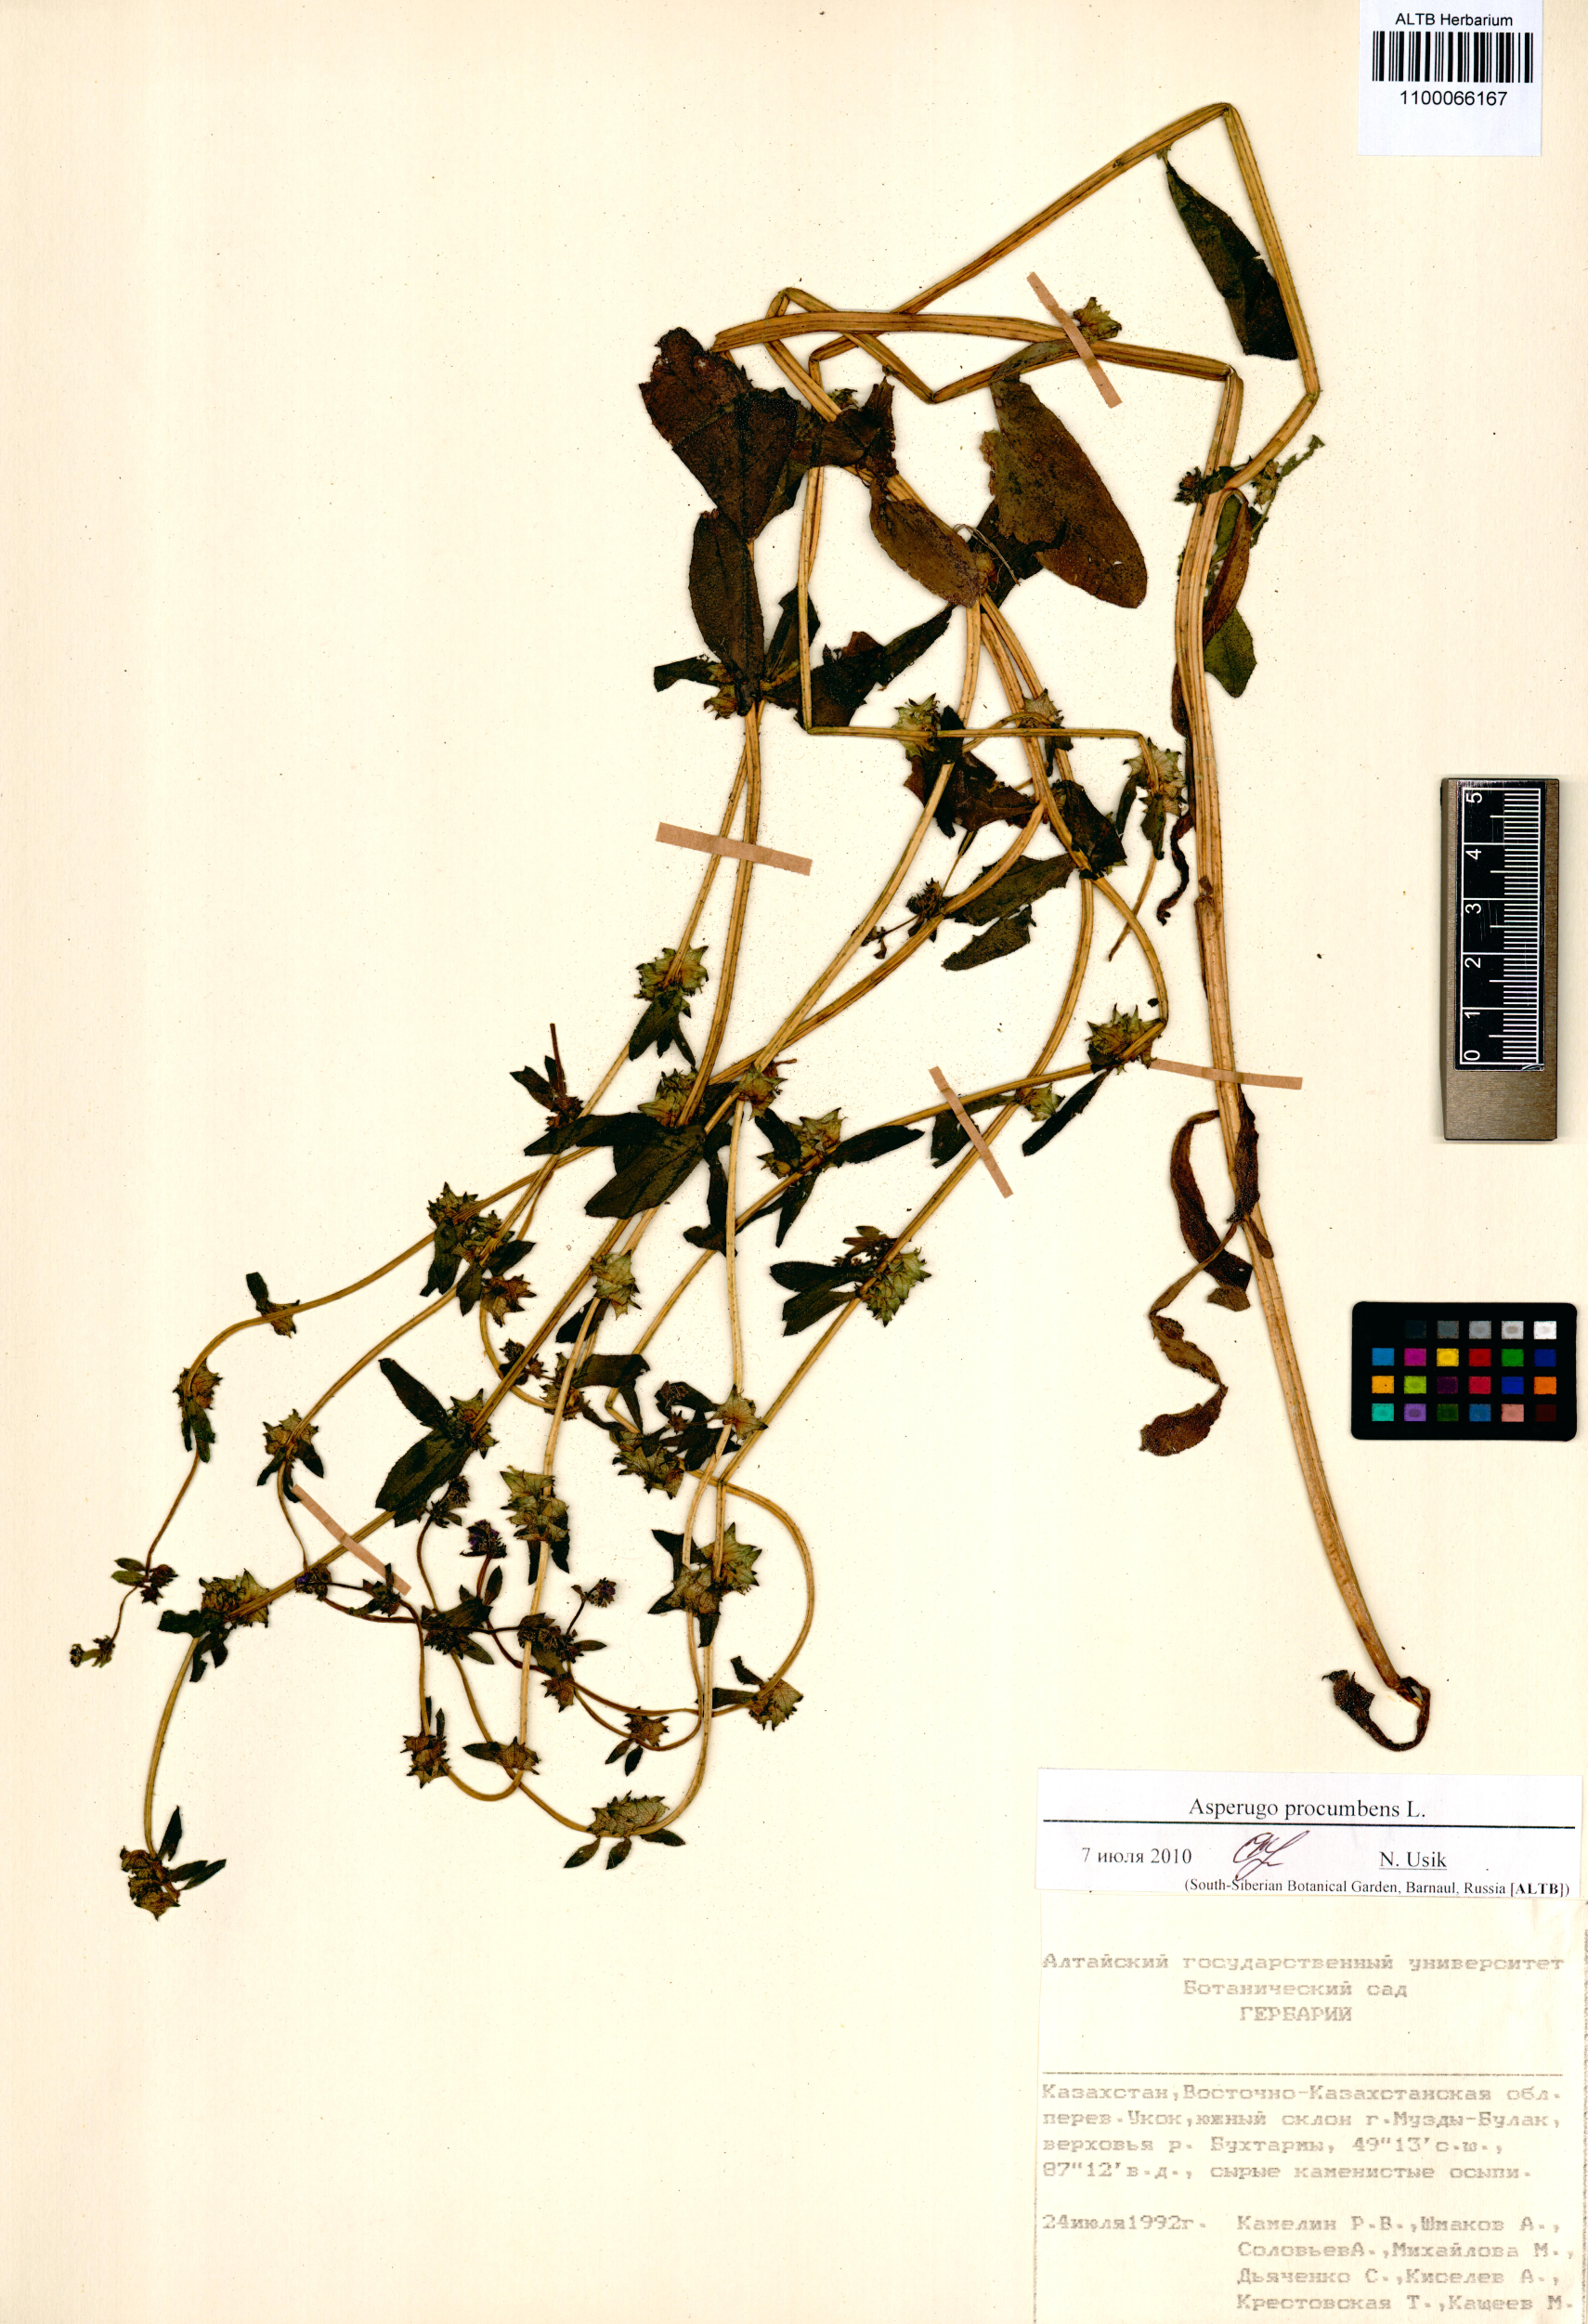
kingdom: Plantae
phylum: Tracheophyta
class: Magnoliopsida
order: Boraginales
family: Boraginaceae
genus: Asperugo
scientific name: Asperugo procumbens
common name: Madwort
